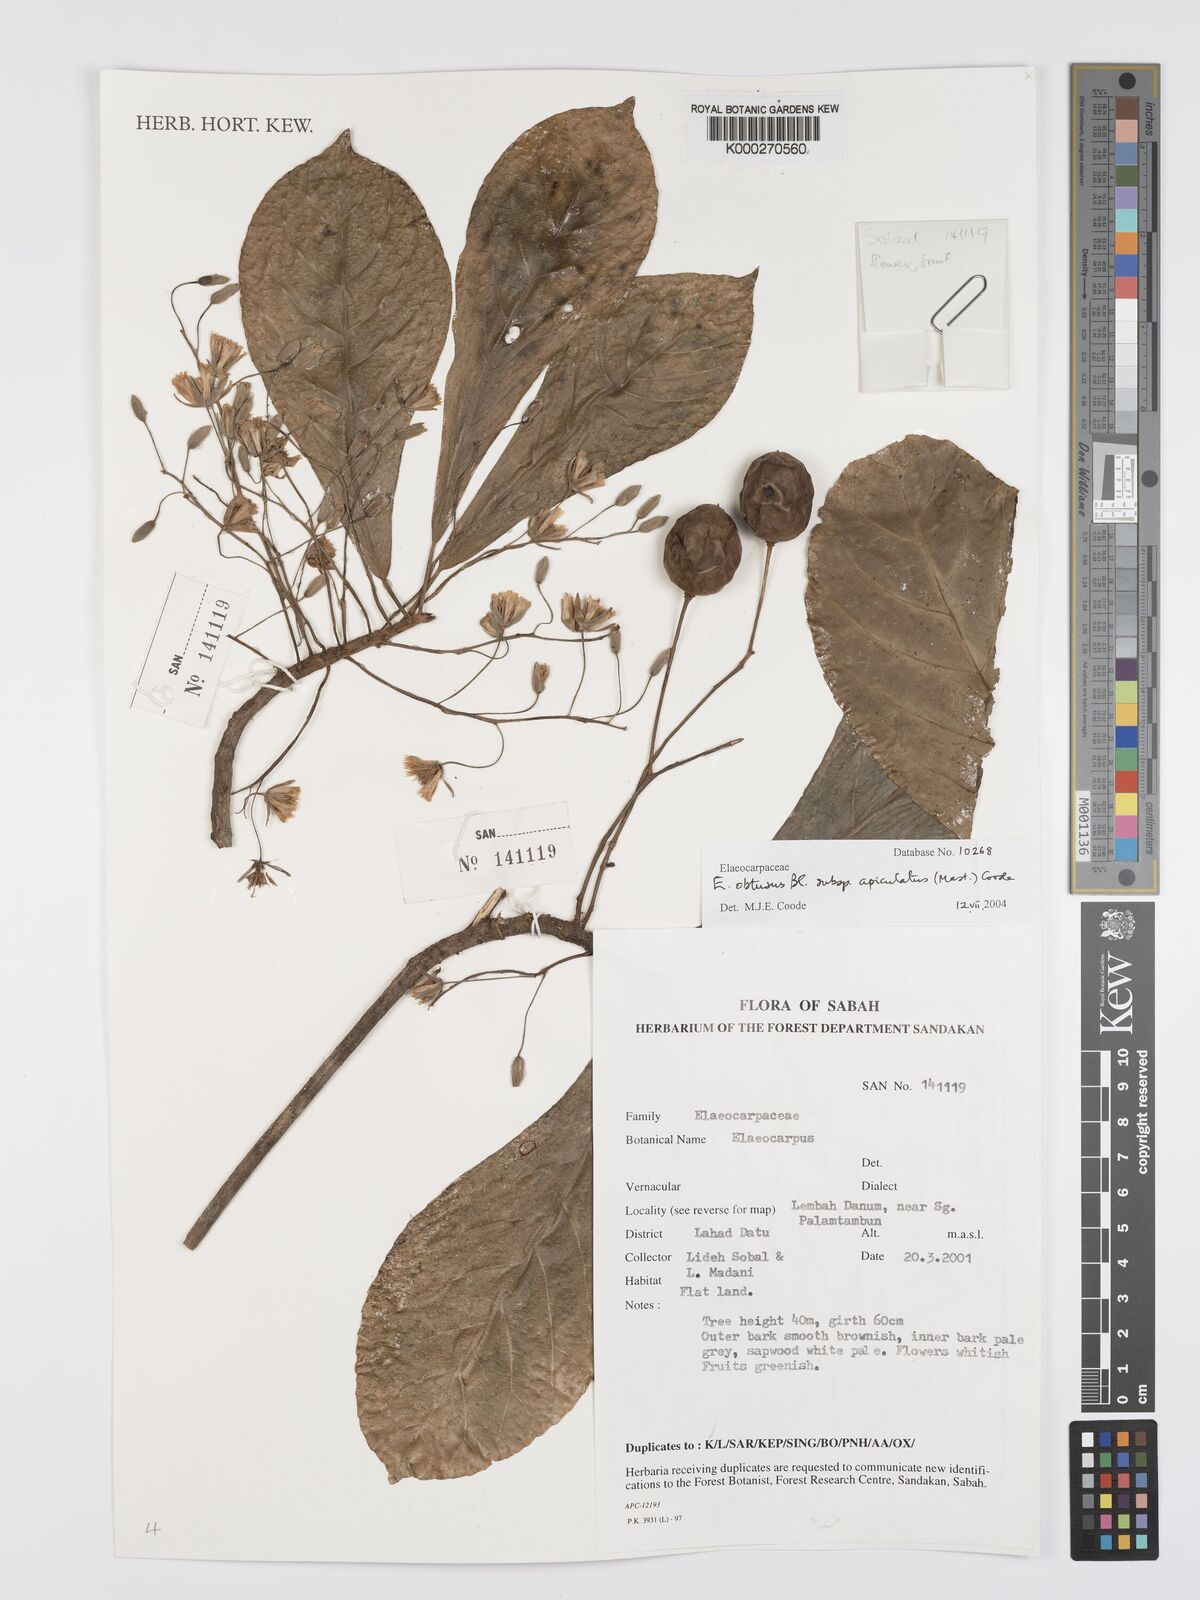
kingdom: Plantae
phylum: Tracheophyta
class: Magnoliopsida
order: Oxalidales
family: Elaeocarpaceae
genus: Elaeocarpus
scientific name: Elaeocarpus obtusus
